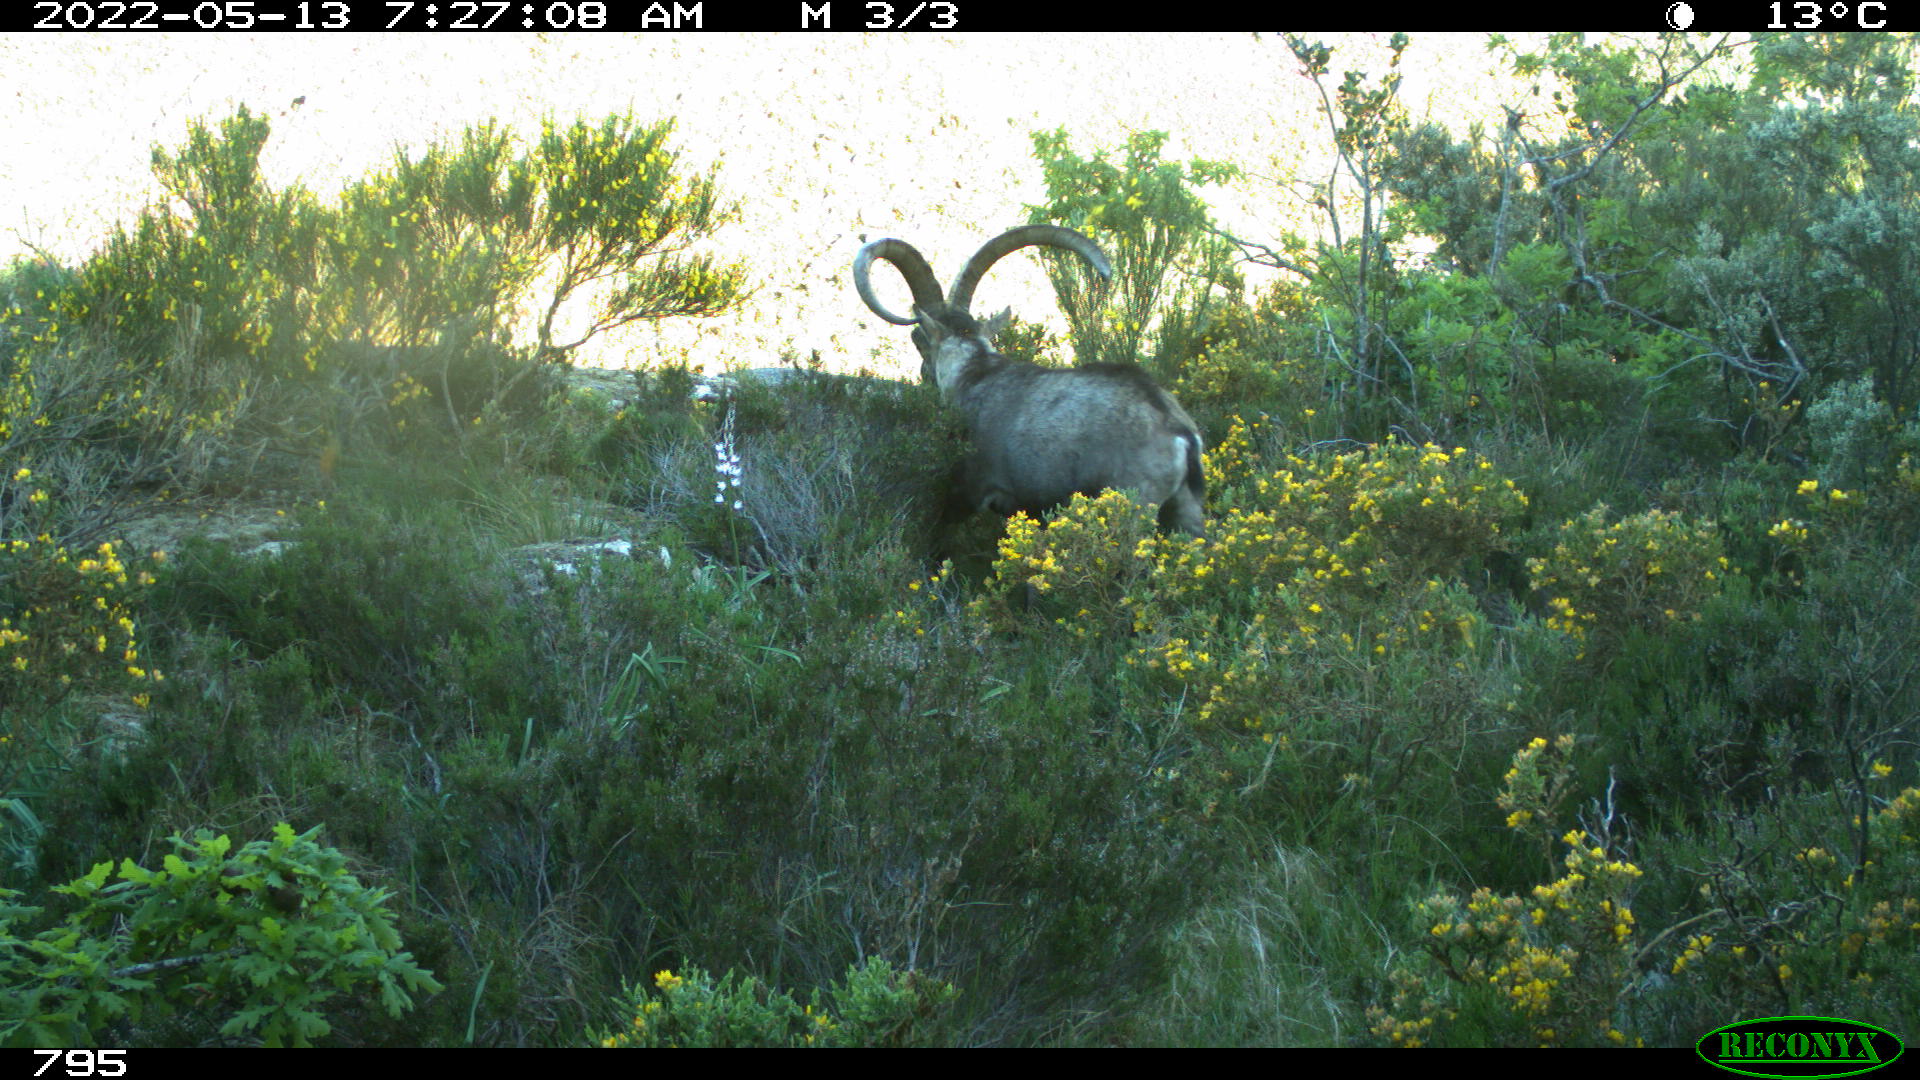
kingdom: Animalia
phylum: Chordata
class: Mammalia
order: Artiodactyla
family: Bovidae
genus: Capra
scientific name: Capra pyrenaica
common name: Spanish ibex
